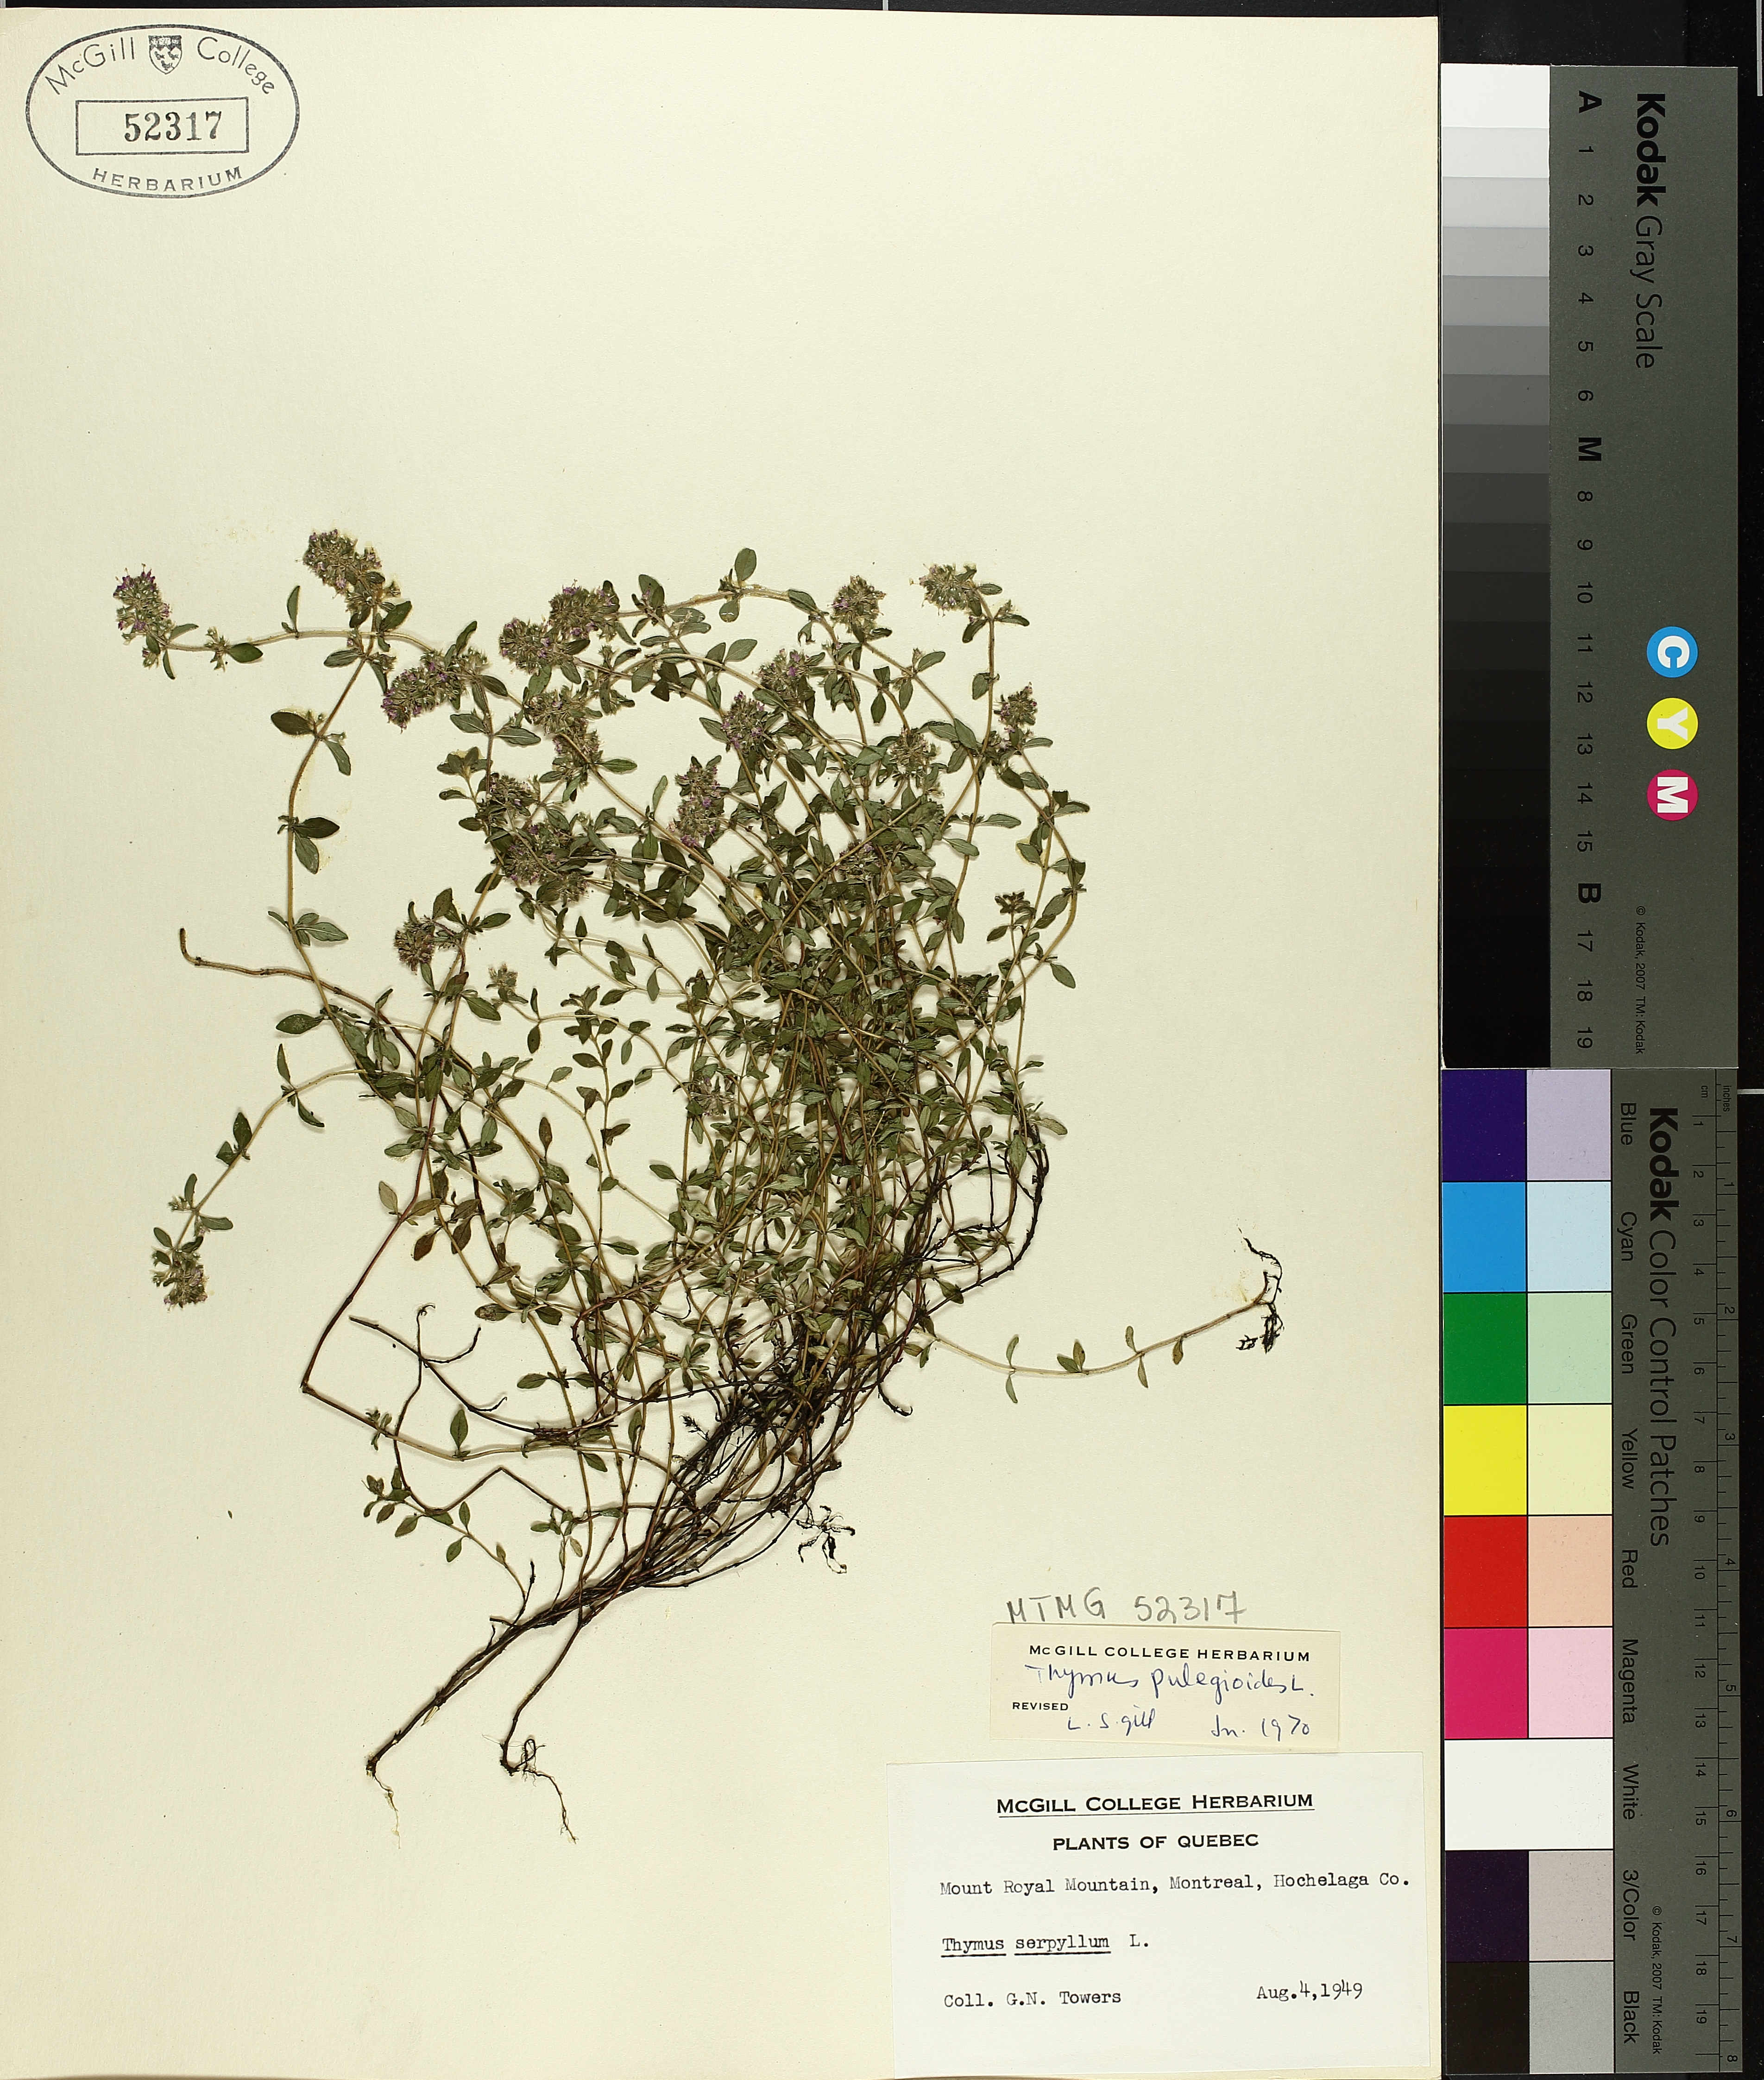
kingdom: Plantae
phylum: Tracheophyta
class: Magnoliopsida
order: Lamiales
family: Lamiaceae
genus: Thymus
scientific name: Thymus pulegioides
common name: Large thyme
